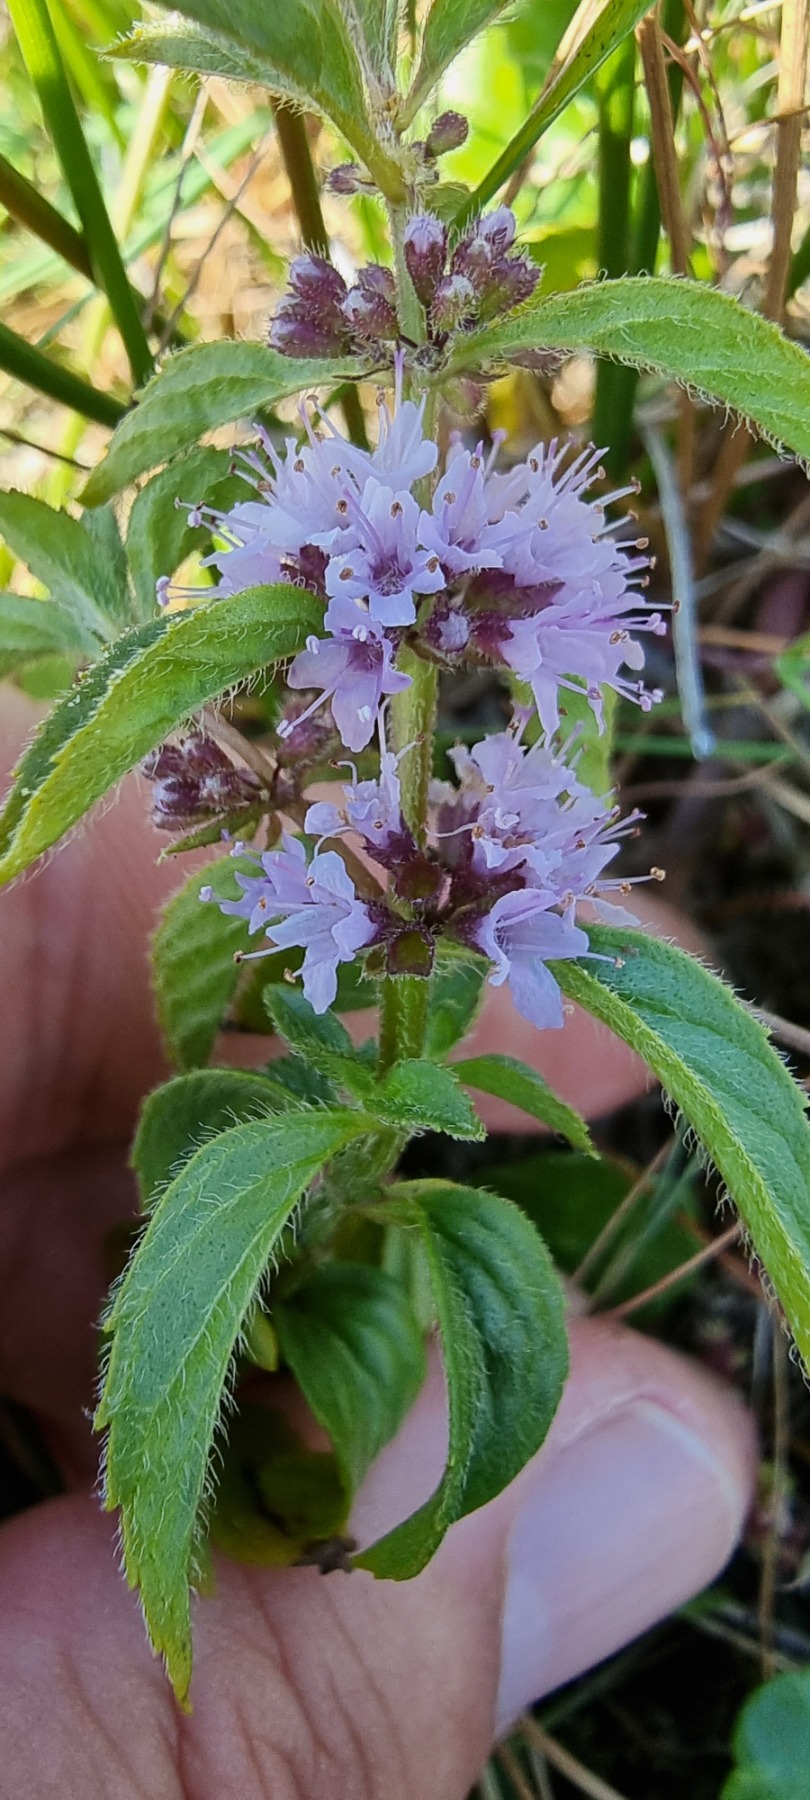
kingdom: Plantae
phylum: Tracheophyta
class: Magnoliopsida
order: Lamiales
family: Lamiaceae
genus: Mentha
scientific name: Mentha arvensis
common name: Ager-mynte
